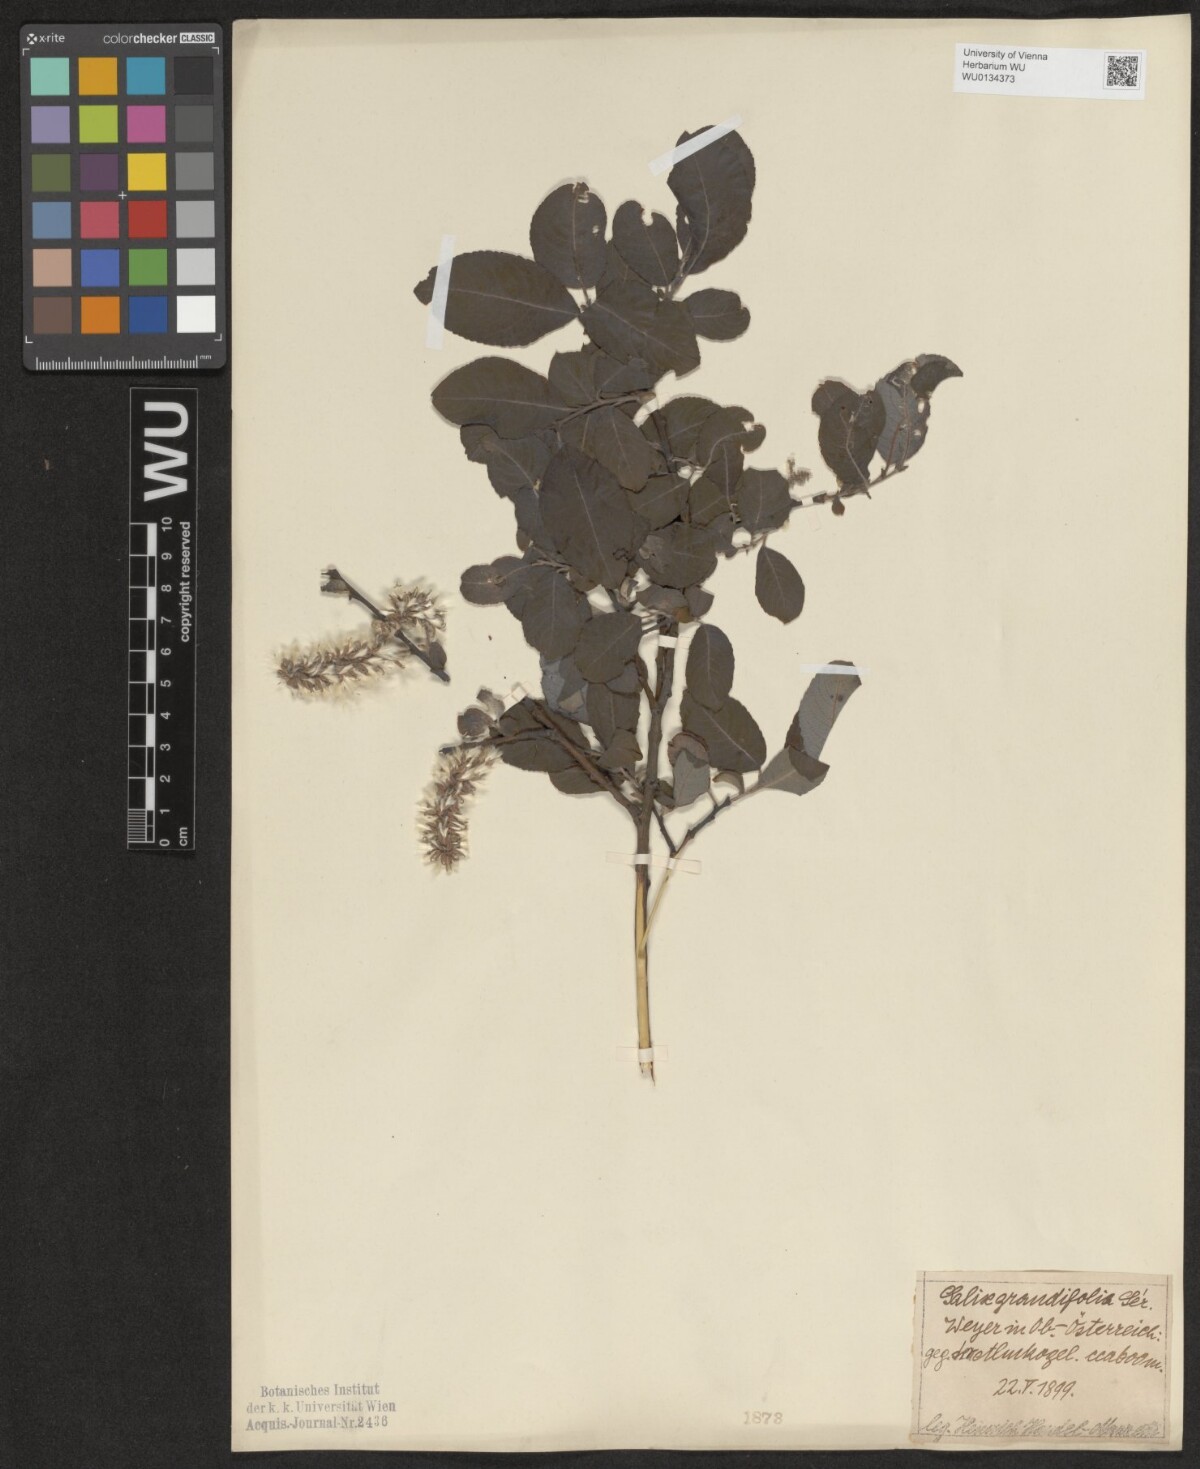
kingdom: Plantae
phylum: Tracheophyta
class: Magnoliopsida
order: Malpighiales
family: Salicaceae
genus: Salix
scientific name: Salix appendiculata
